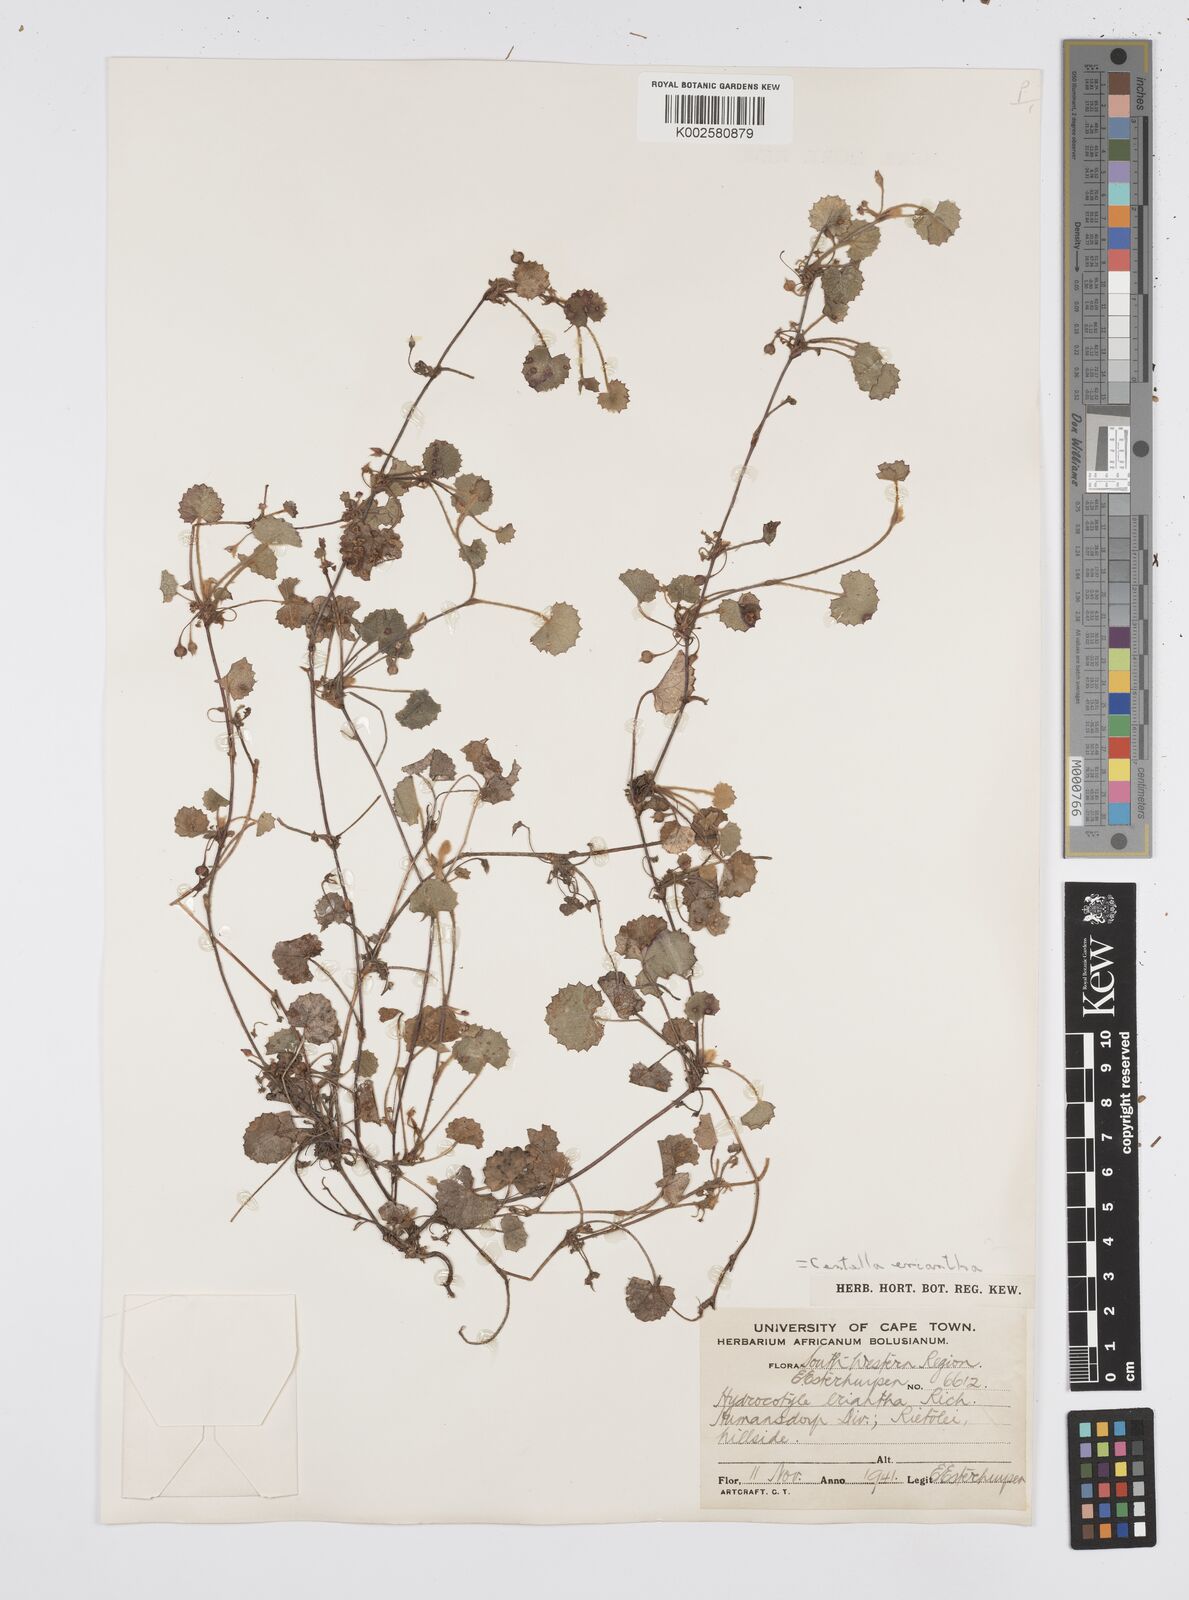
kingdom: Plantae
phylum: Tracheophyta
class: Magnoliopsida
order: Apiales
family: Apiaceae
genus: Centella
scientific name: Centella eriantha
